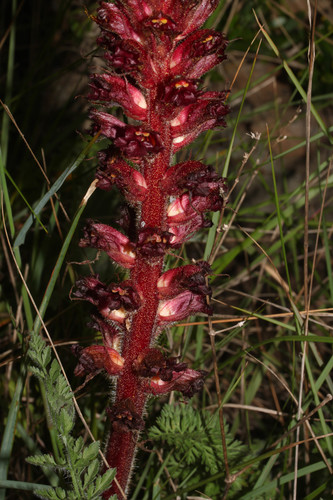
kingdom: Plantae
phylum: Tracheophyta
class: Magnoliopsida
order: Lamiales
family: Orobanchaceae
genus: Orobanche
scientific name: Orobanche foetida
